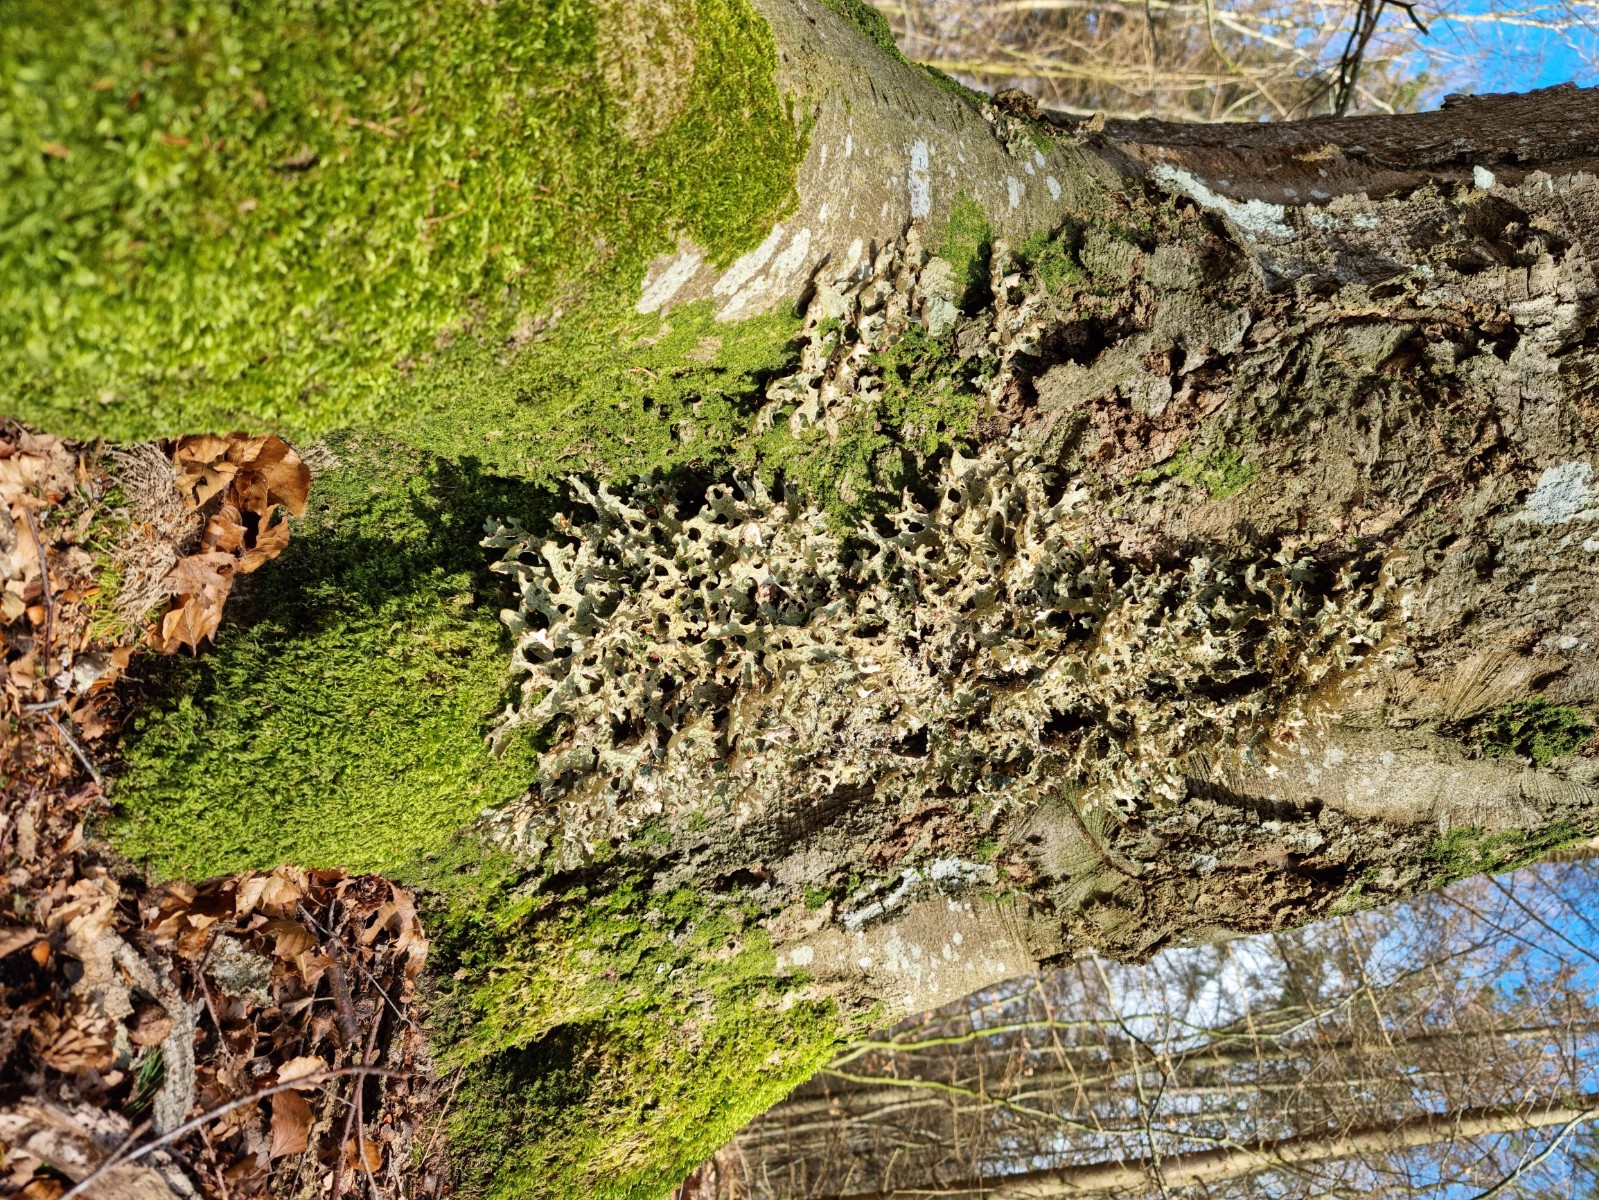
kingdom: Fungi
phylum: Ascomycota
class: Lecanoromycetes
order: Peltigerales
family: Lobariaceae
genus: Lobaria
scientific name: Lobaria pulmonaria
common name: almindelig lungelav
